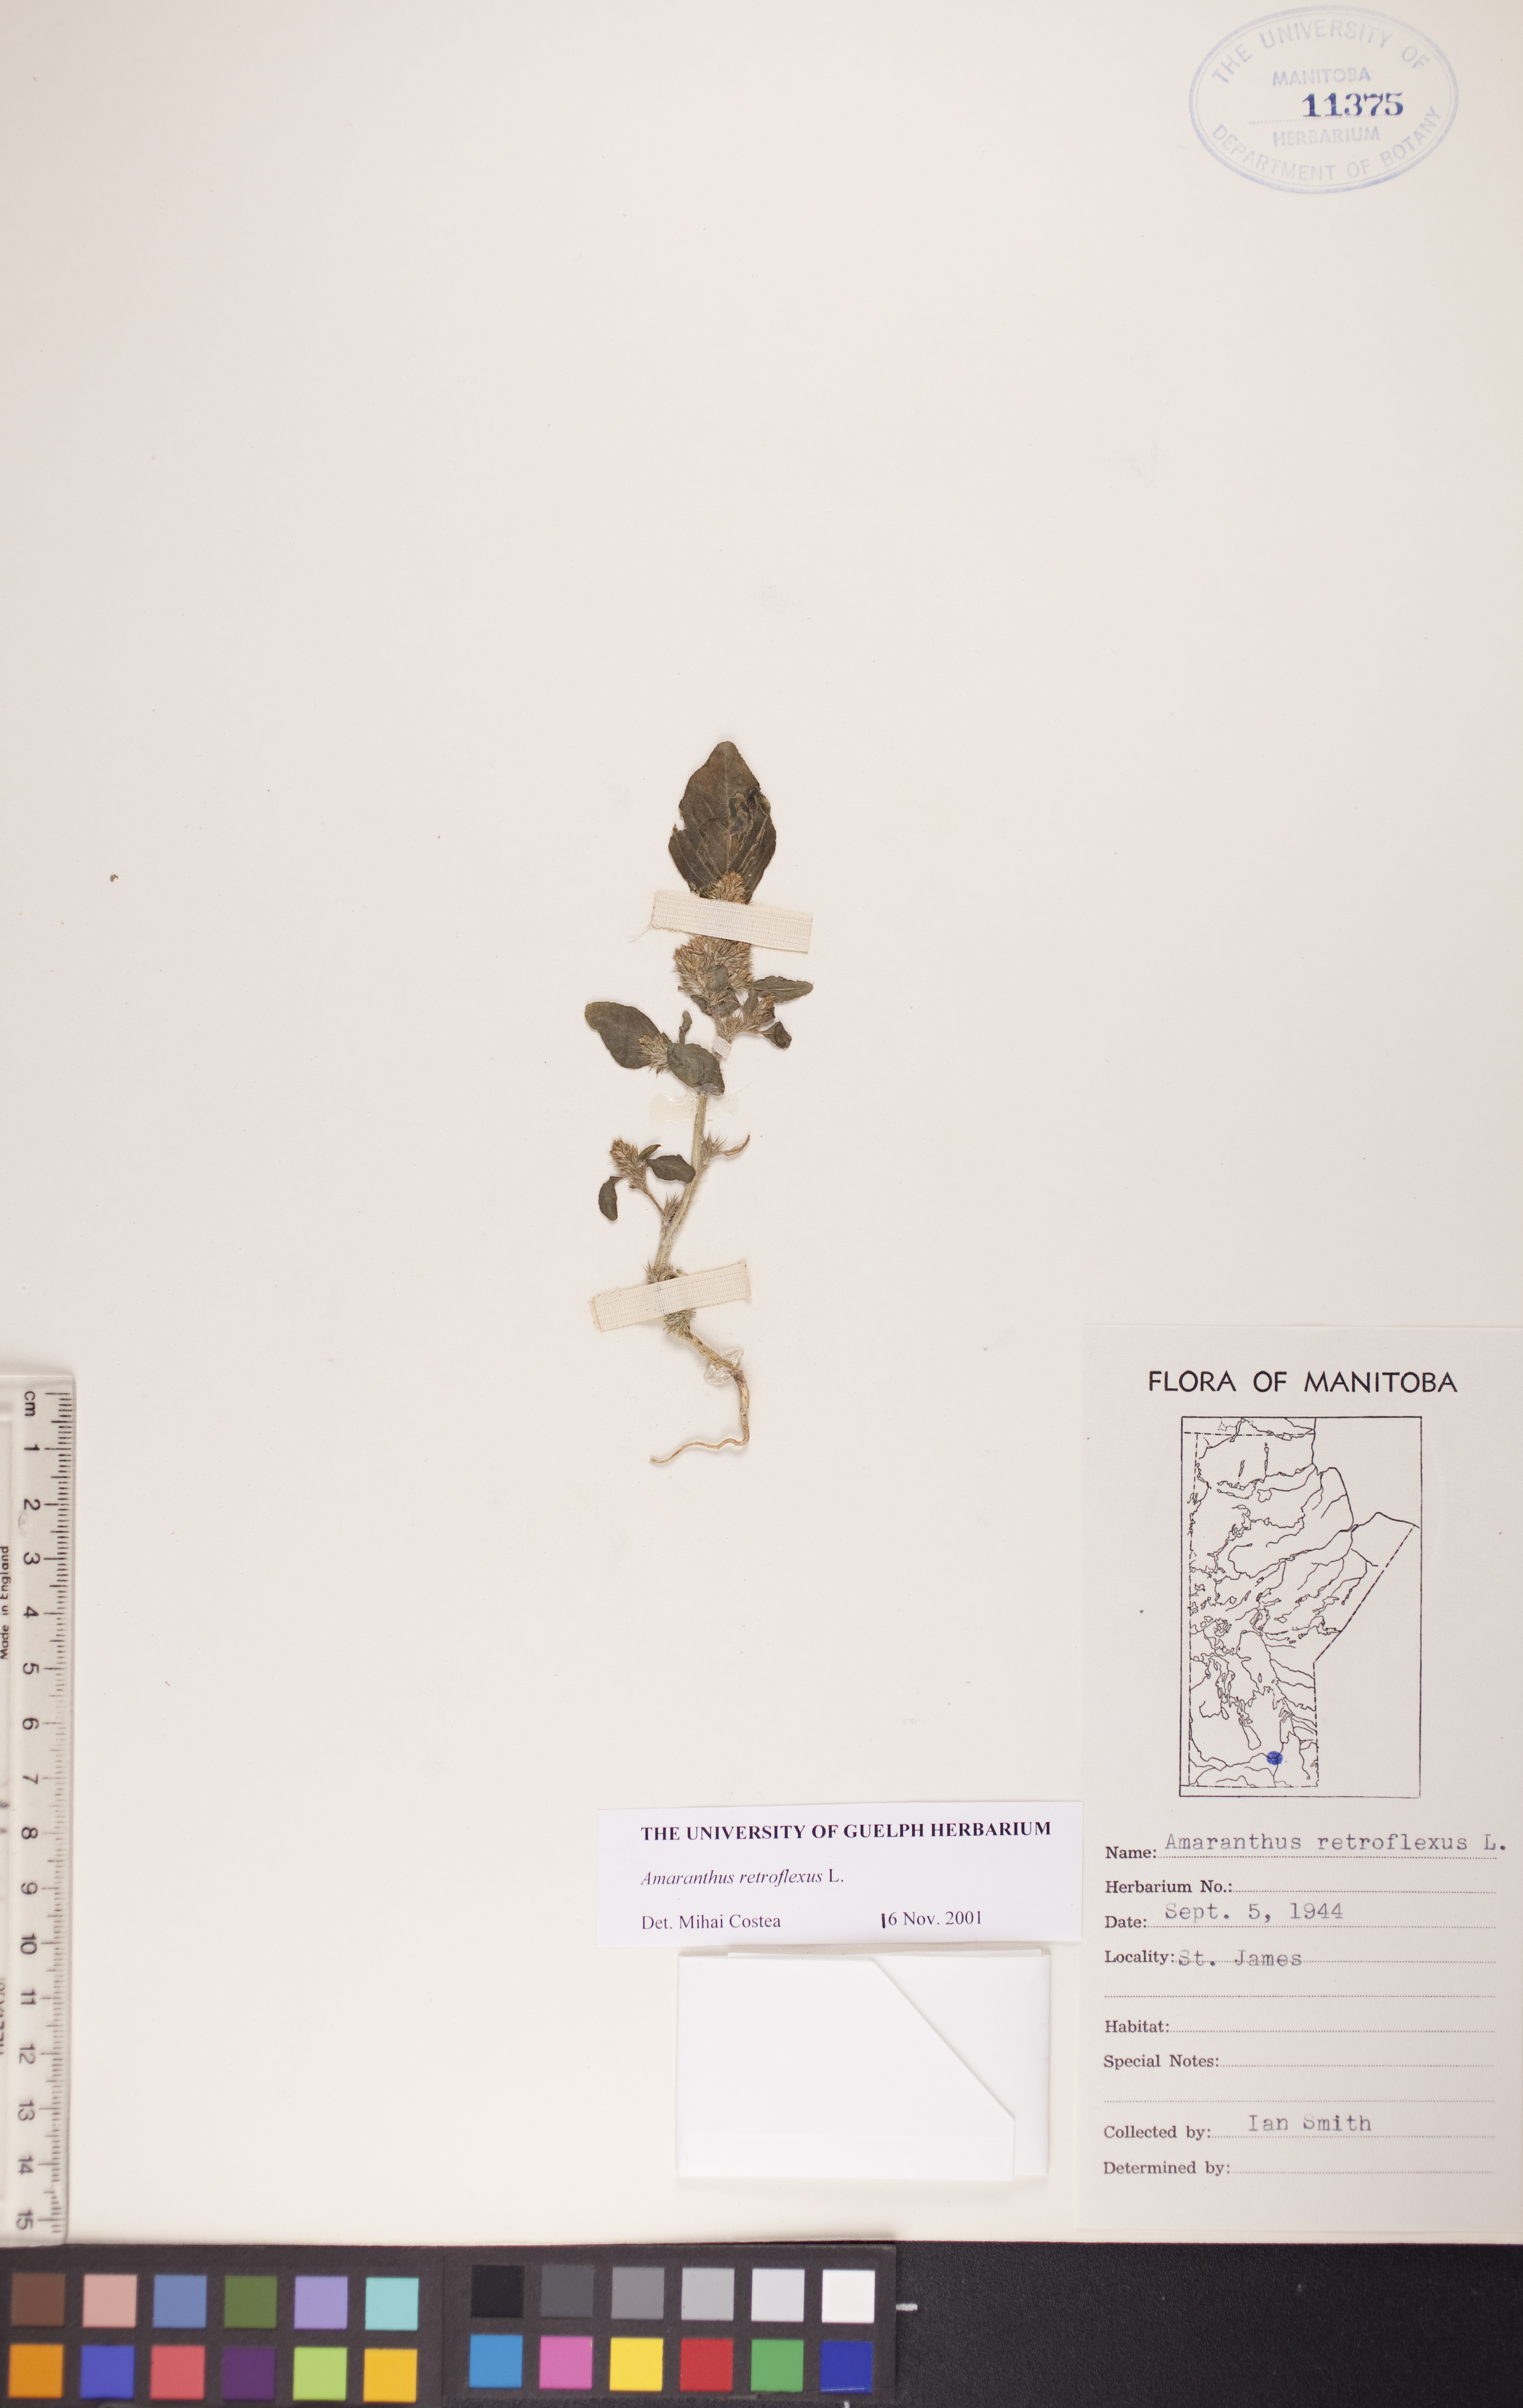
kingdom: Plantae
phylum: Tracheophyta
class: Magnoliopsida
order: Caryophyllales
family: Amaranthaceae
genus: Amaranthus
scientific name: Amaranthus retroflexus
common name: Redroot amaranth
